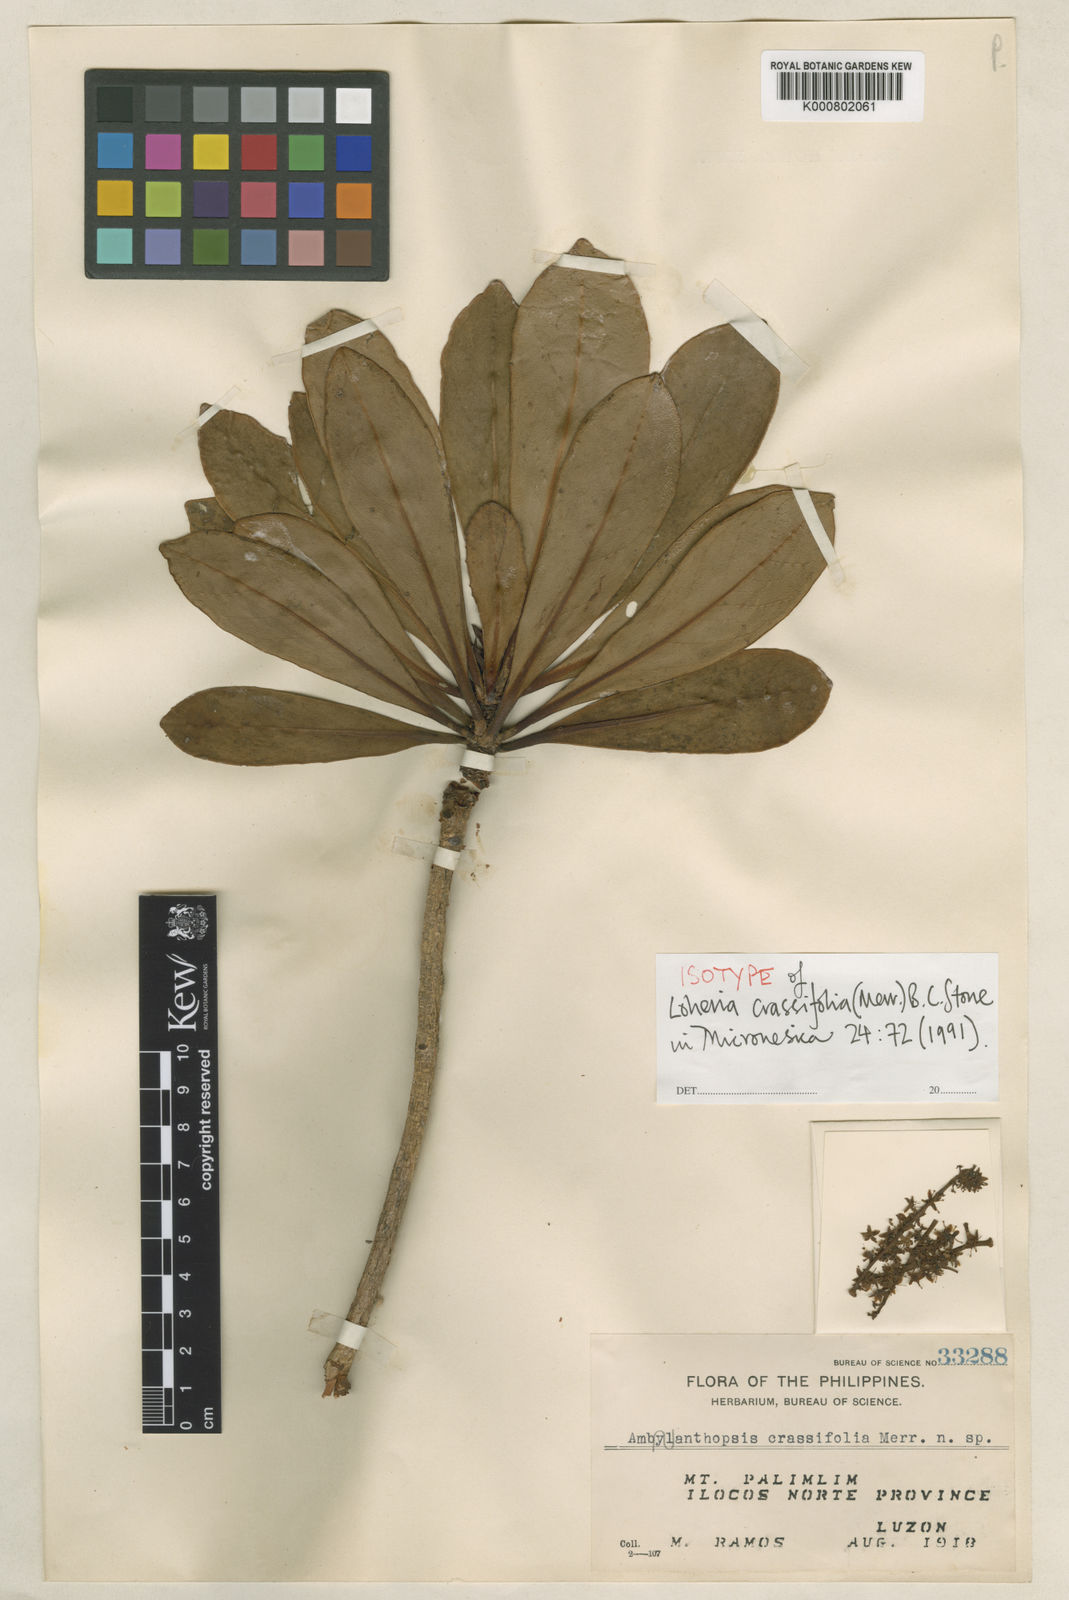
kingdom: Plantae
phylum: Tracheophyta
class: Magnoliopsida
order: Ericales
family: Primulaceae
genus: Loheria
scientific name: Loheria crassifolia
